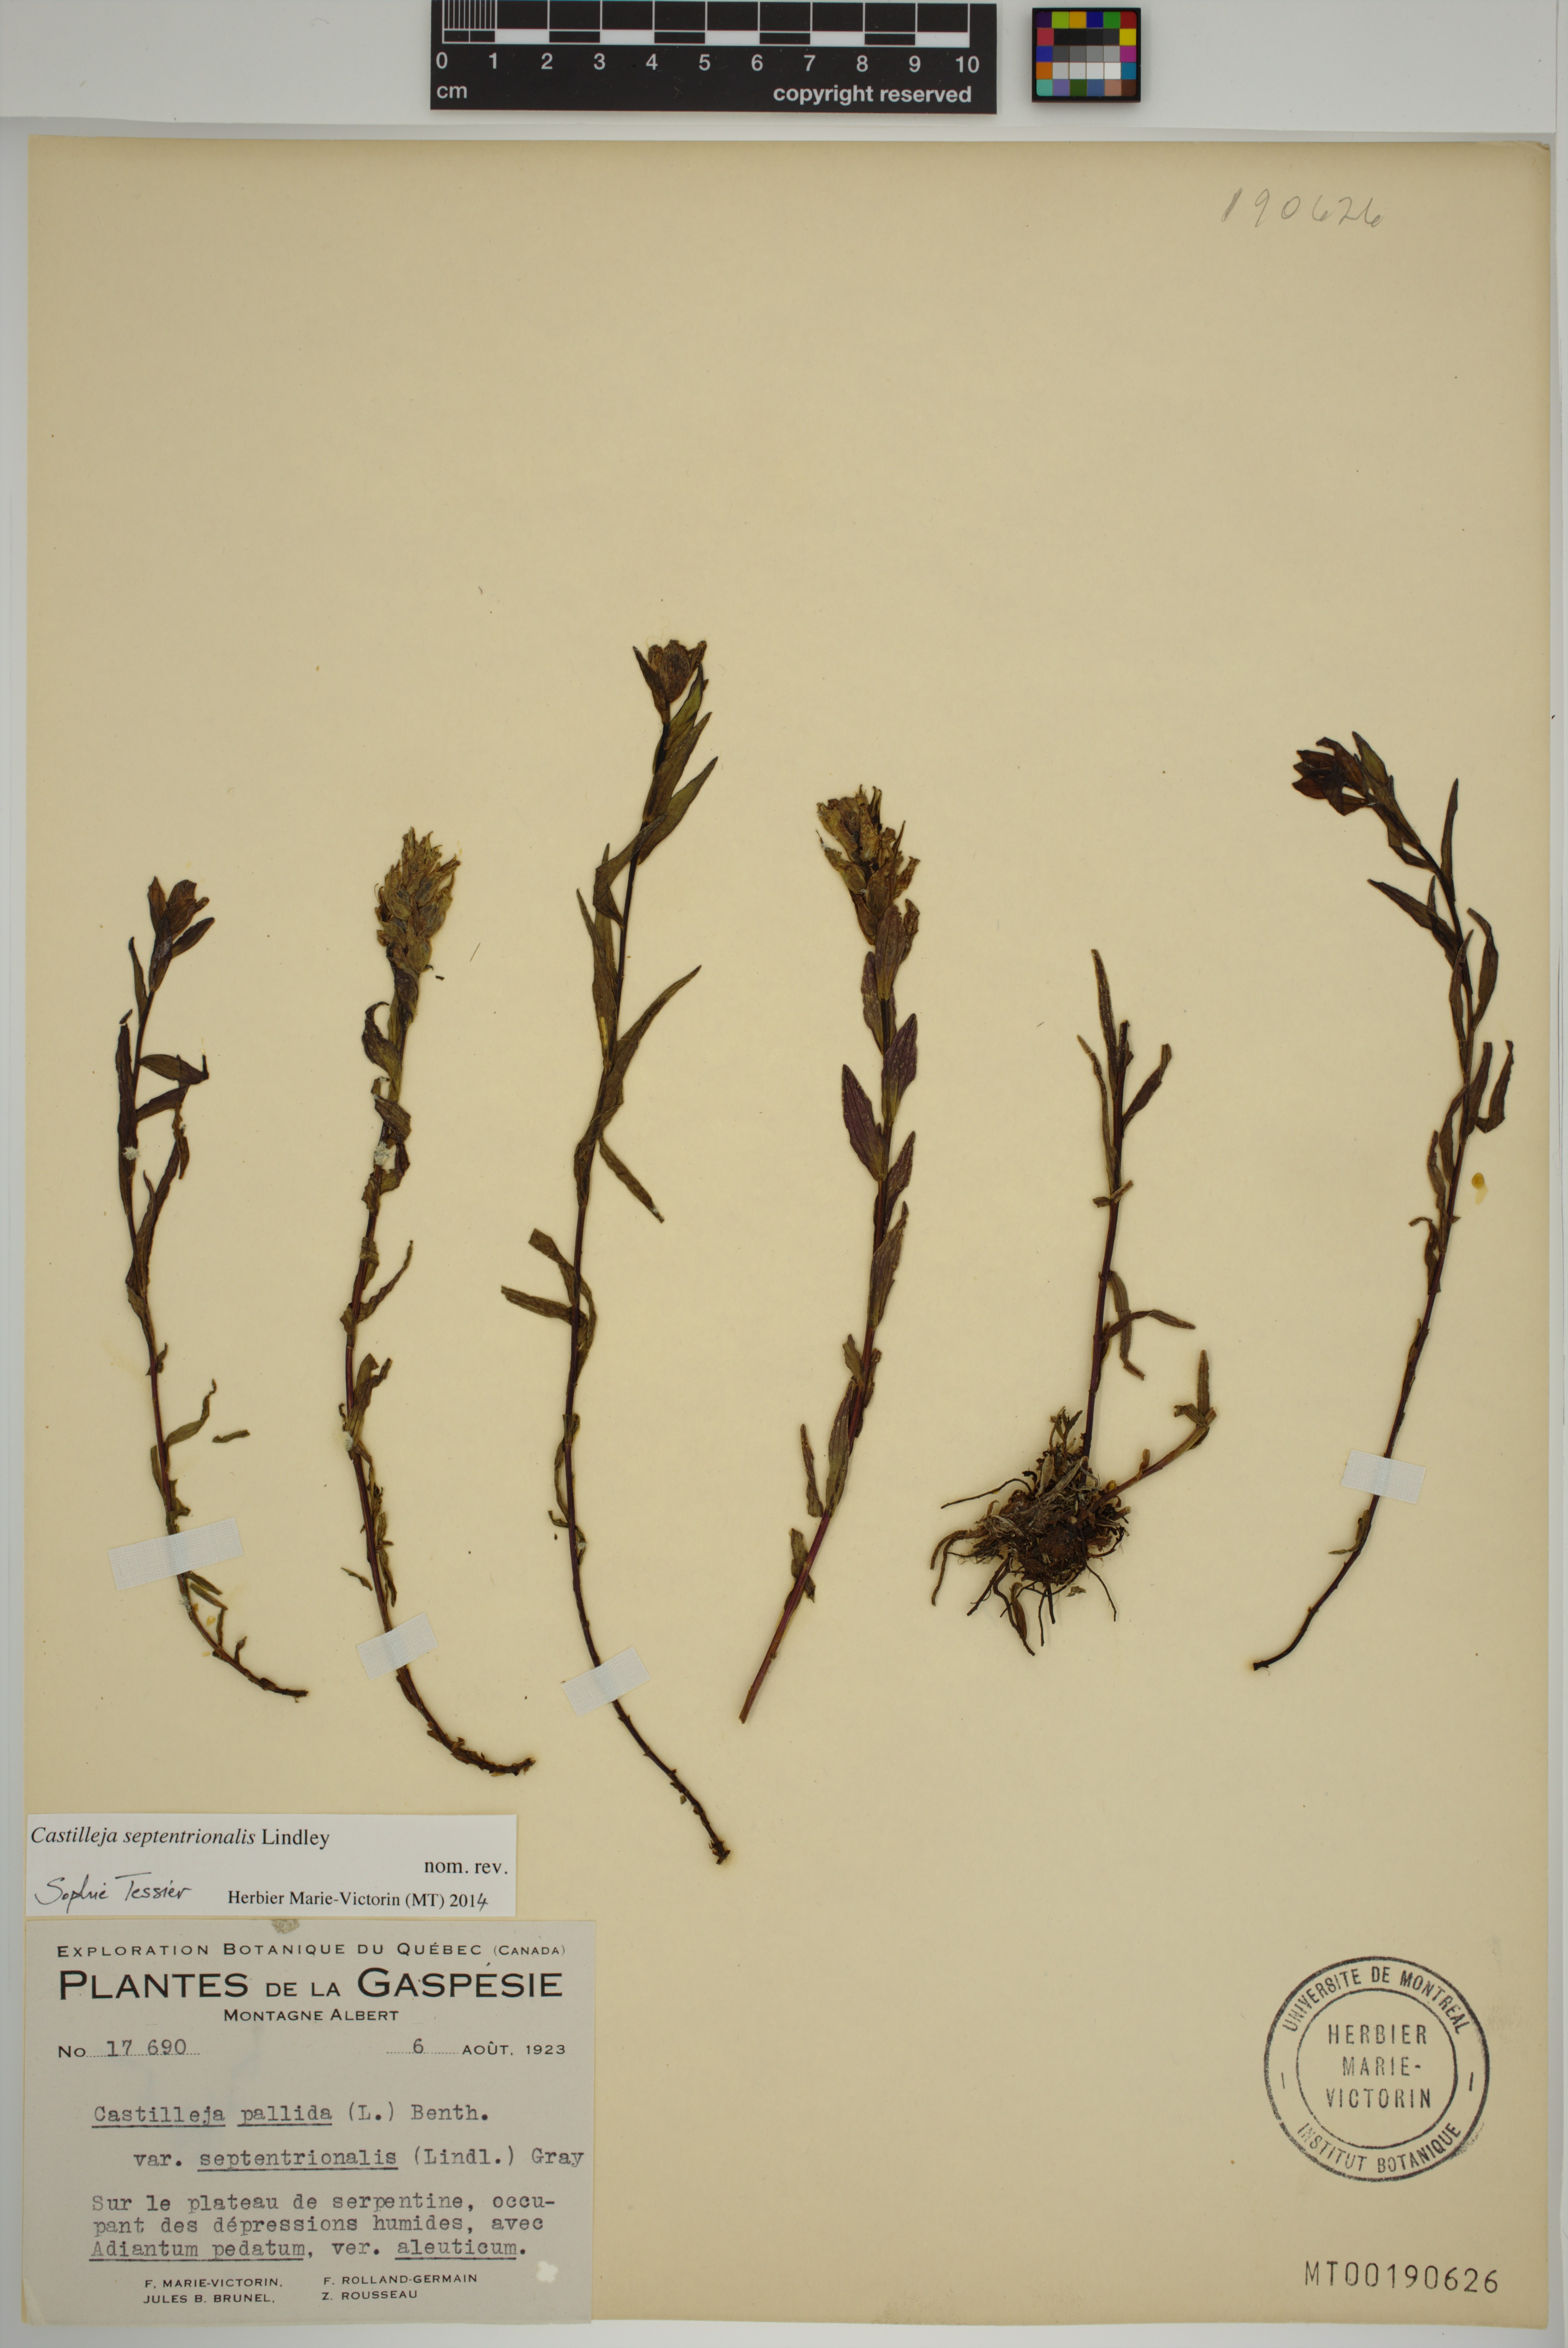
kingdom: Plantae
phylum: Tracheophyta
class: Magnoliopsida
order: Lamiales
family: Orobanchaceae
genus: Castilleja
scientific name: Castilleja septentrionalis
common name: Northeastern paintbrush
